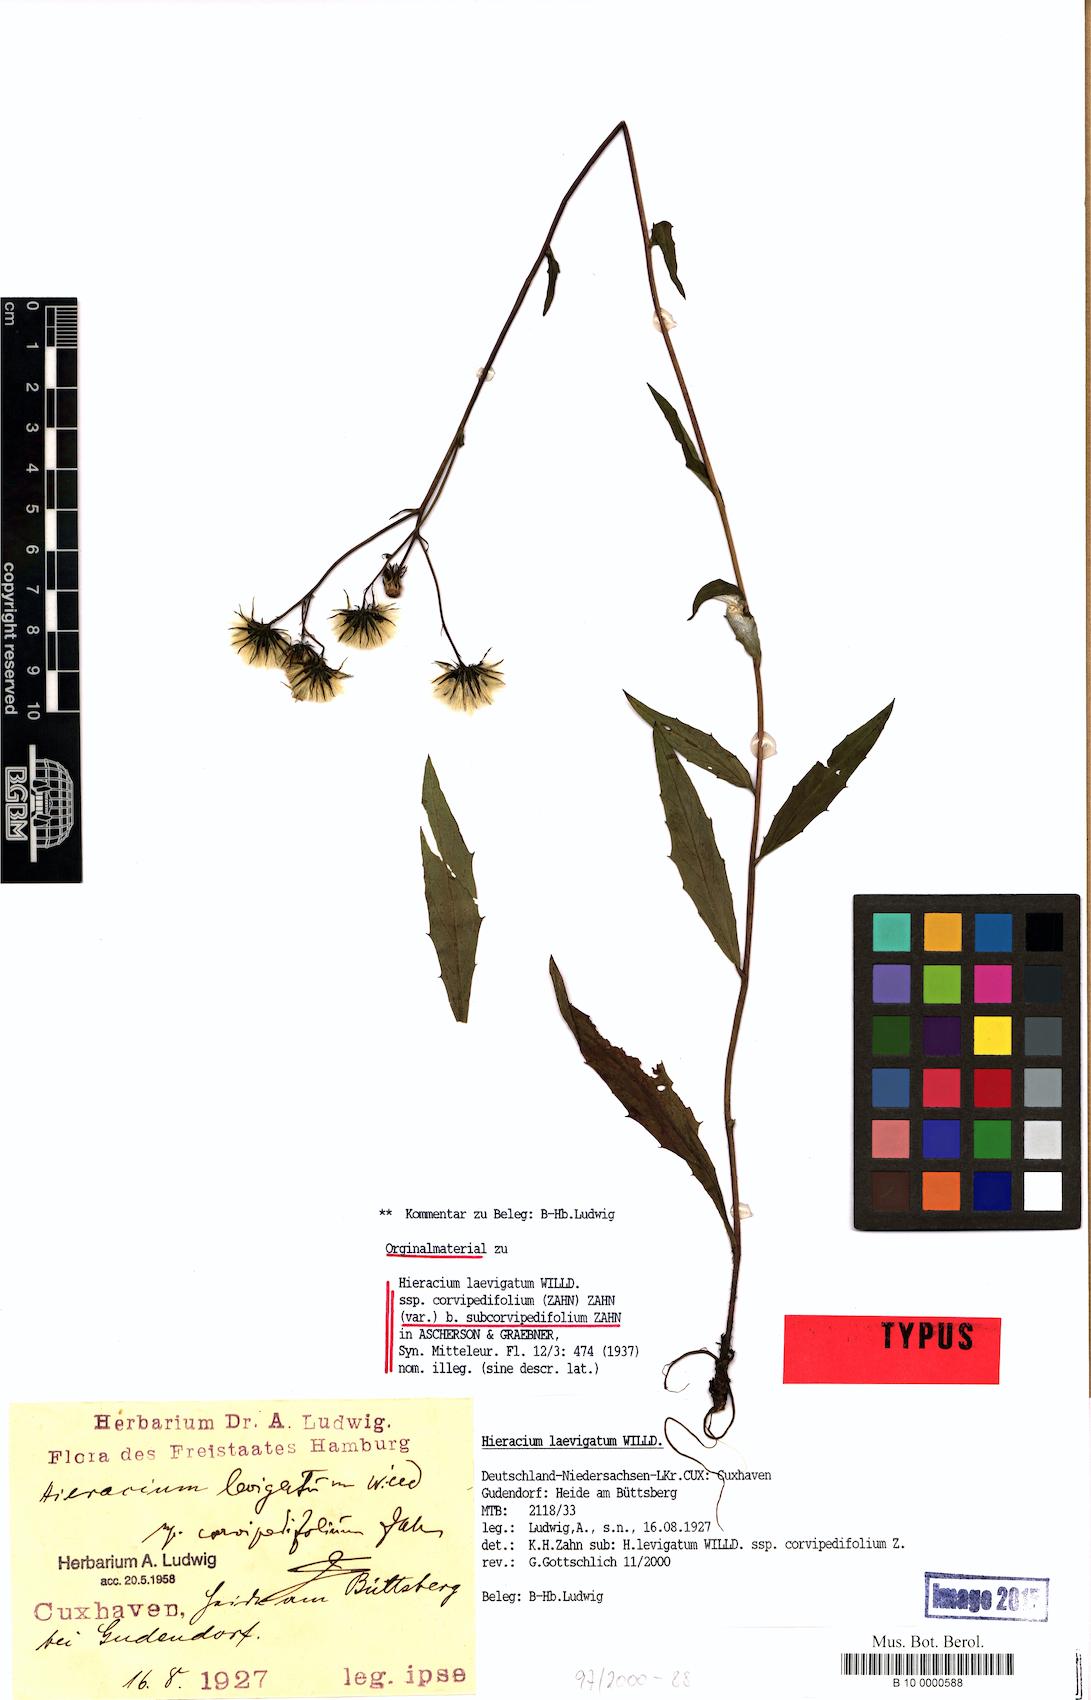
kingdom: Plantae
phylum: Tracheophyta
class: Magnoliopsida
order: Asterales
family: Asteraceae
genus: Hieracium
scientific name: Hieracium
